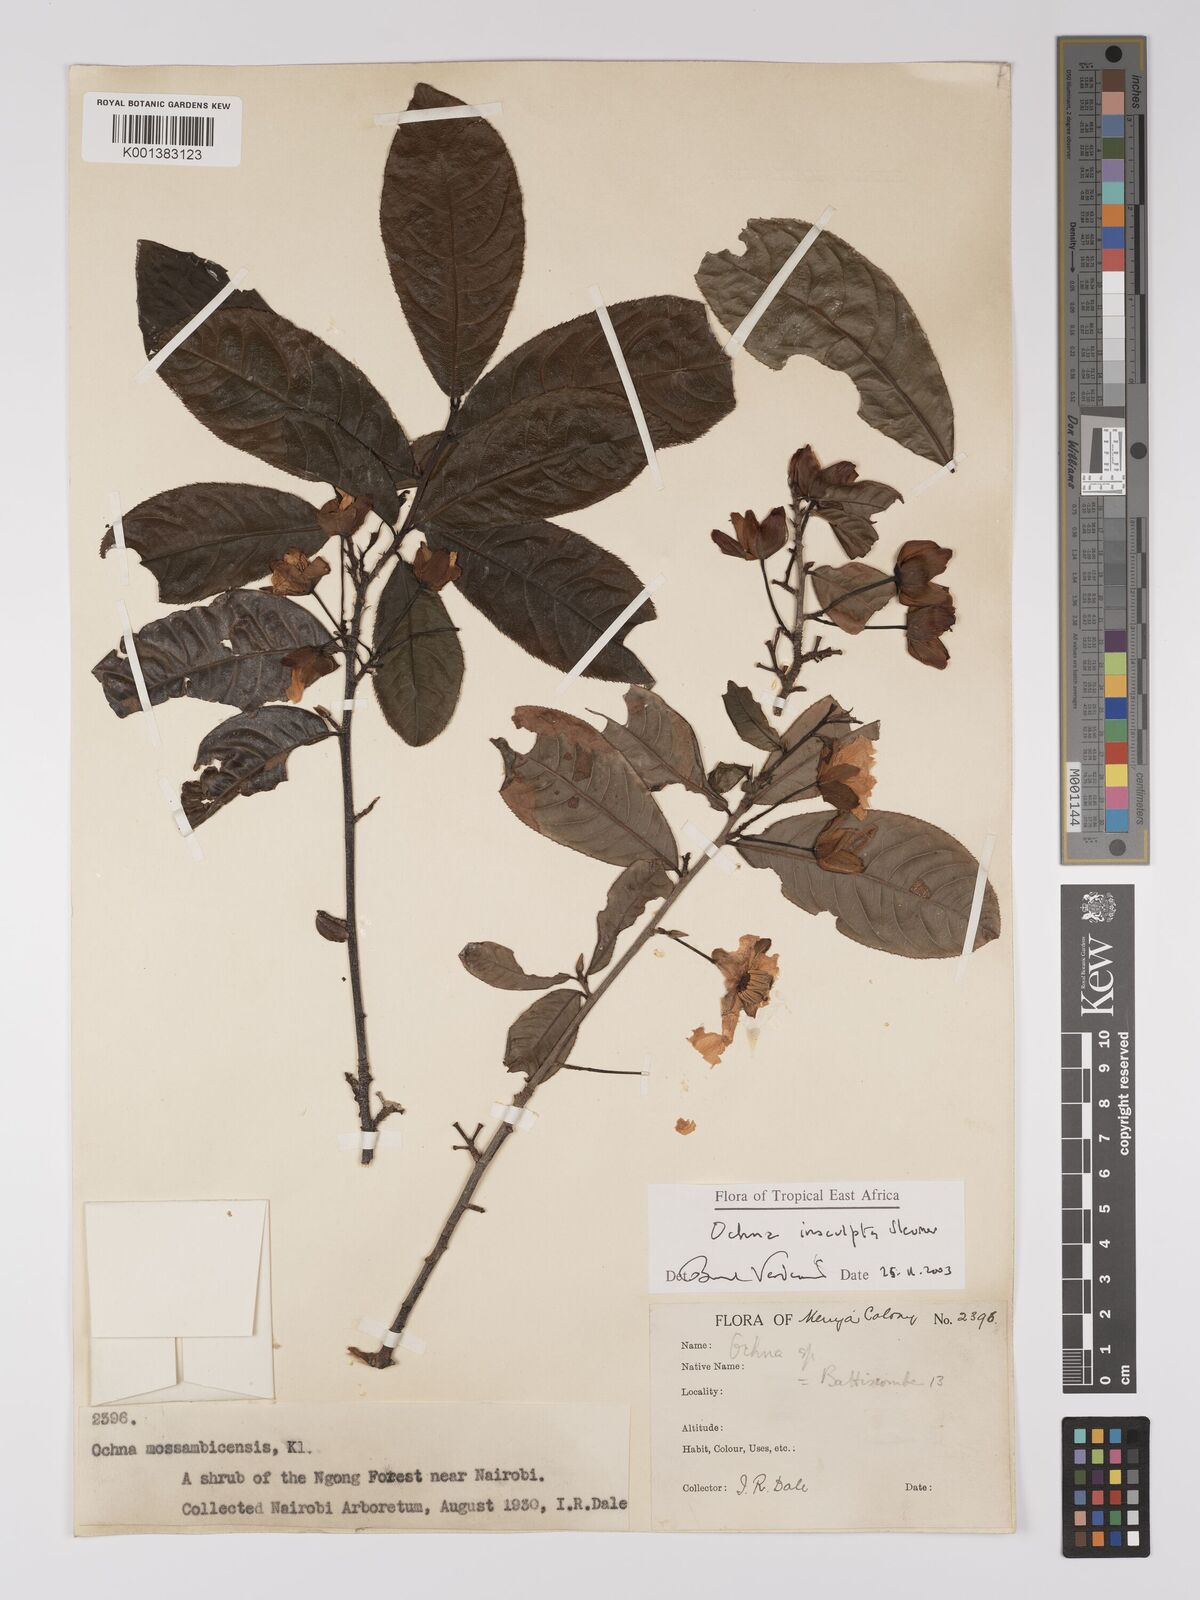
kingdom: Plantae
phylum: Tracheophyta
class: Magnoliopsida
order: Malpighiales
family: Ochnaceae
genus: Ochna
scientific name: Ochna insculpta
